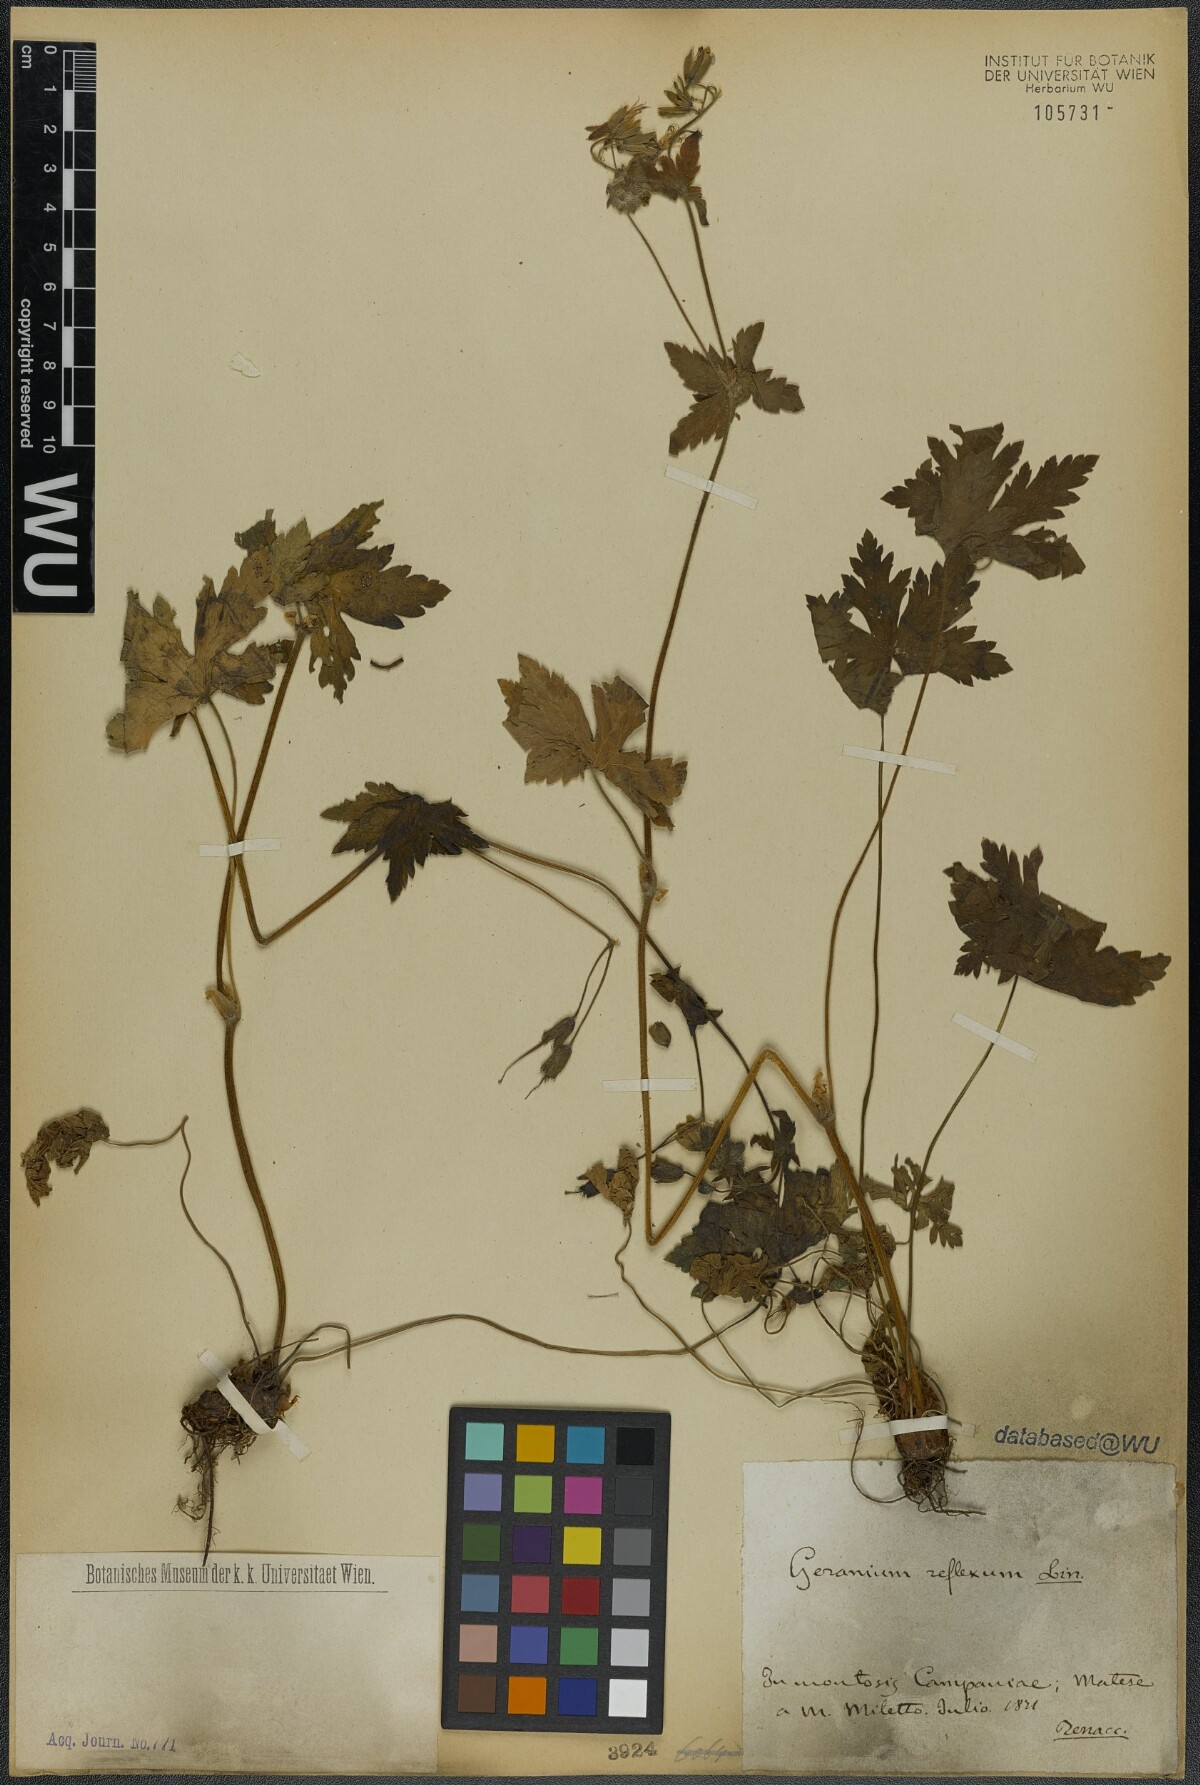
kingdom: Plantae
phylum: Tracheophyta
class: Magnoliopsida
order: Geraniales
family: Geraniaceae
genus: Pelargonium
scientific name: Pelargonium reflexum
